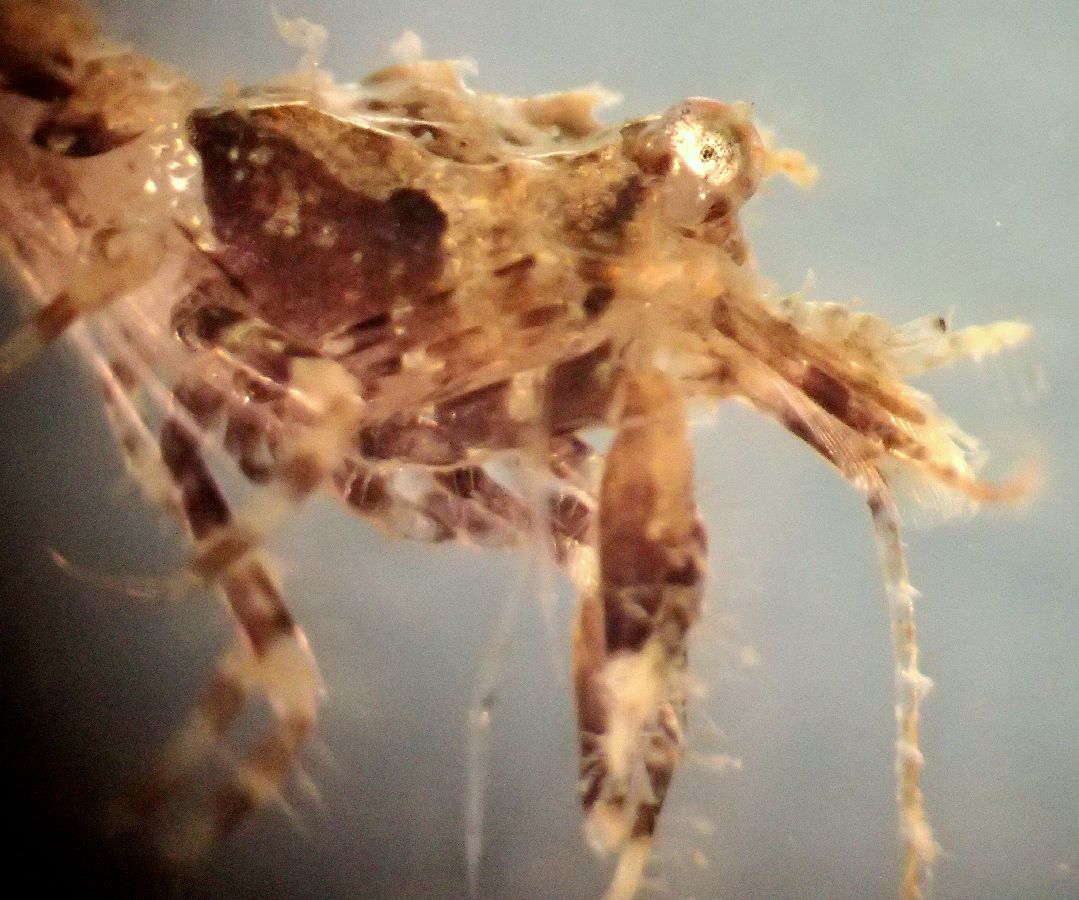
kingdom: Animalia
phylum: Arthropoda
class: Malacostraca
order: Decapoda
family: Crangonidae
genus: Sclerocrangon
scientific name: Sclerocrangon boreas
